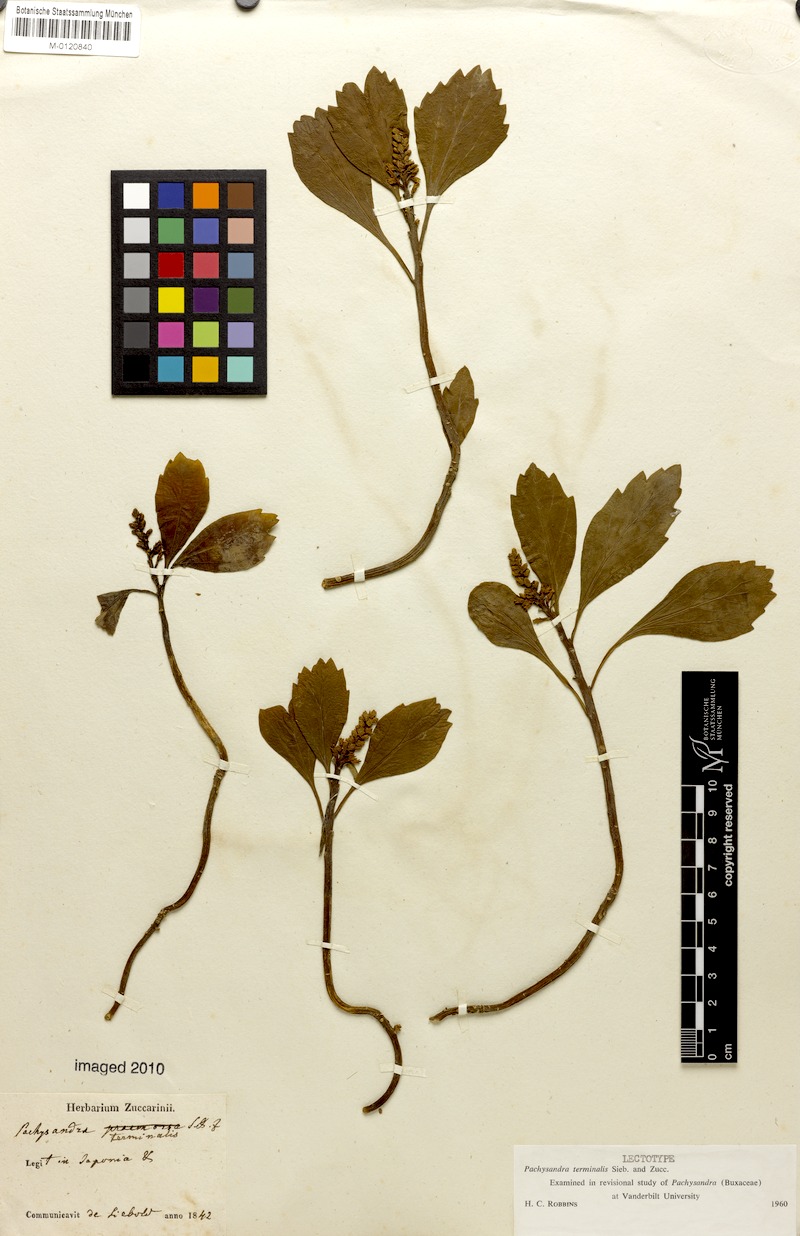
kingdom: Plantae
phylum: Tracheophyta
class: Magnoliopsida
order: Buxales
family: Buxaceae
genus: Pachysandra
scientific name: Pachysandra terminalis
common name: Japanese pachysandra
